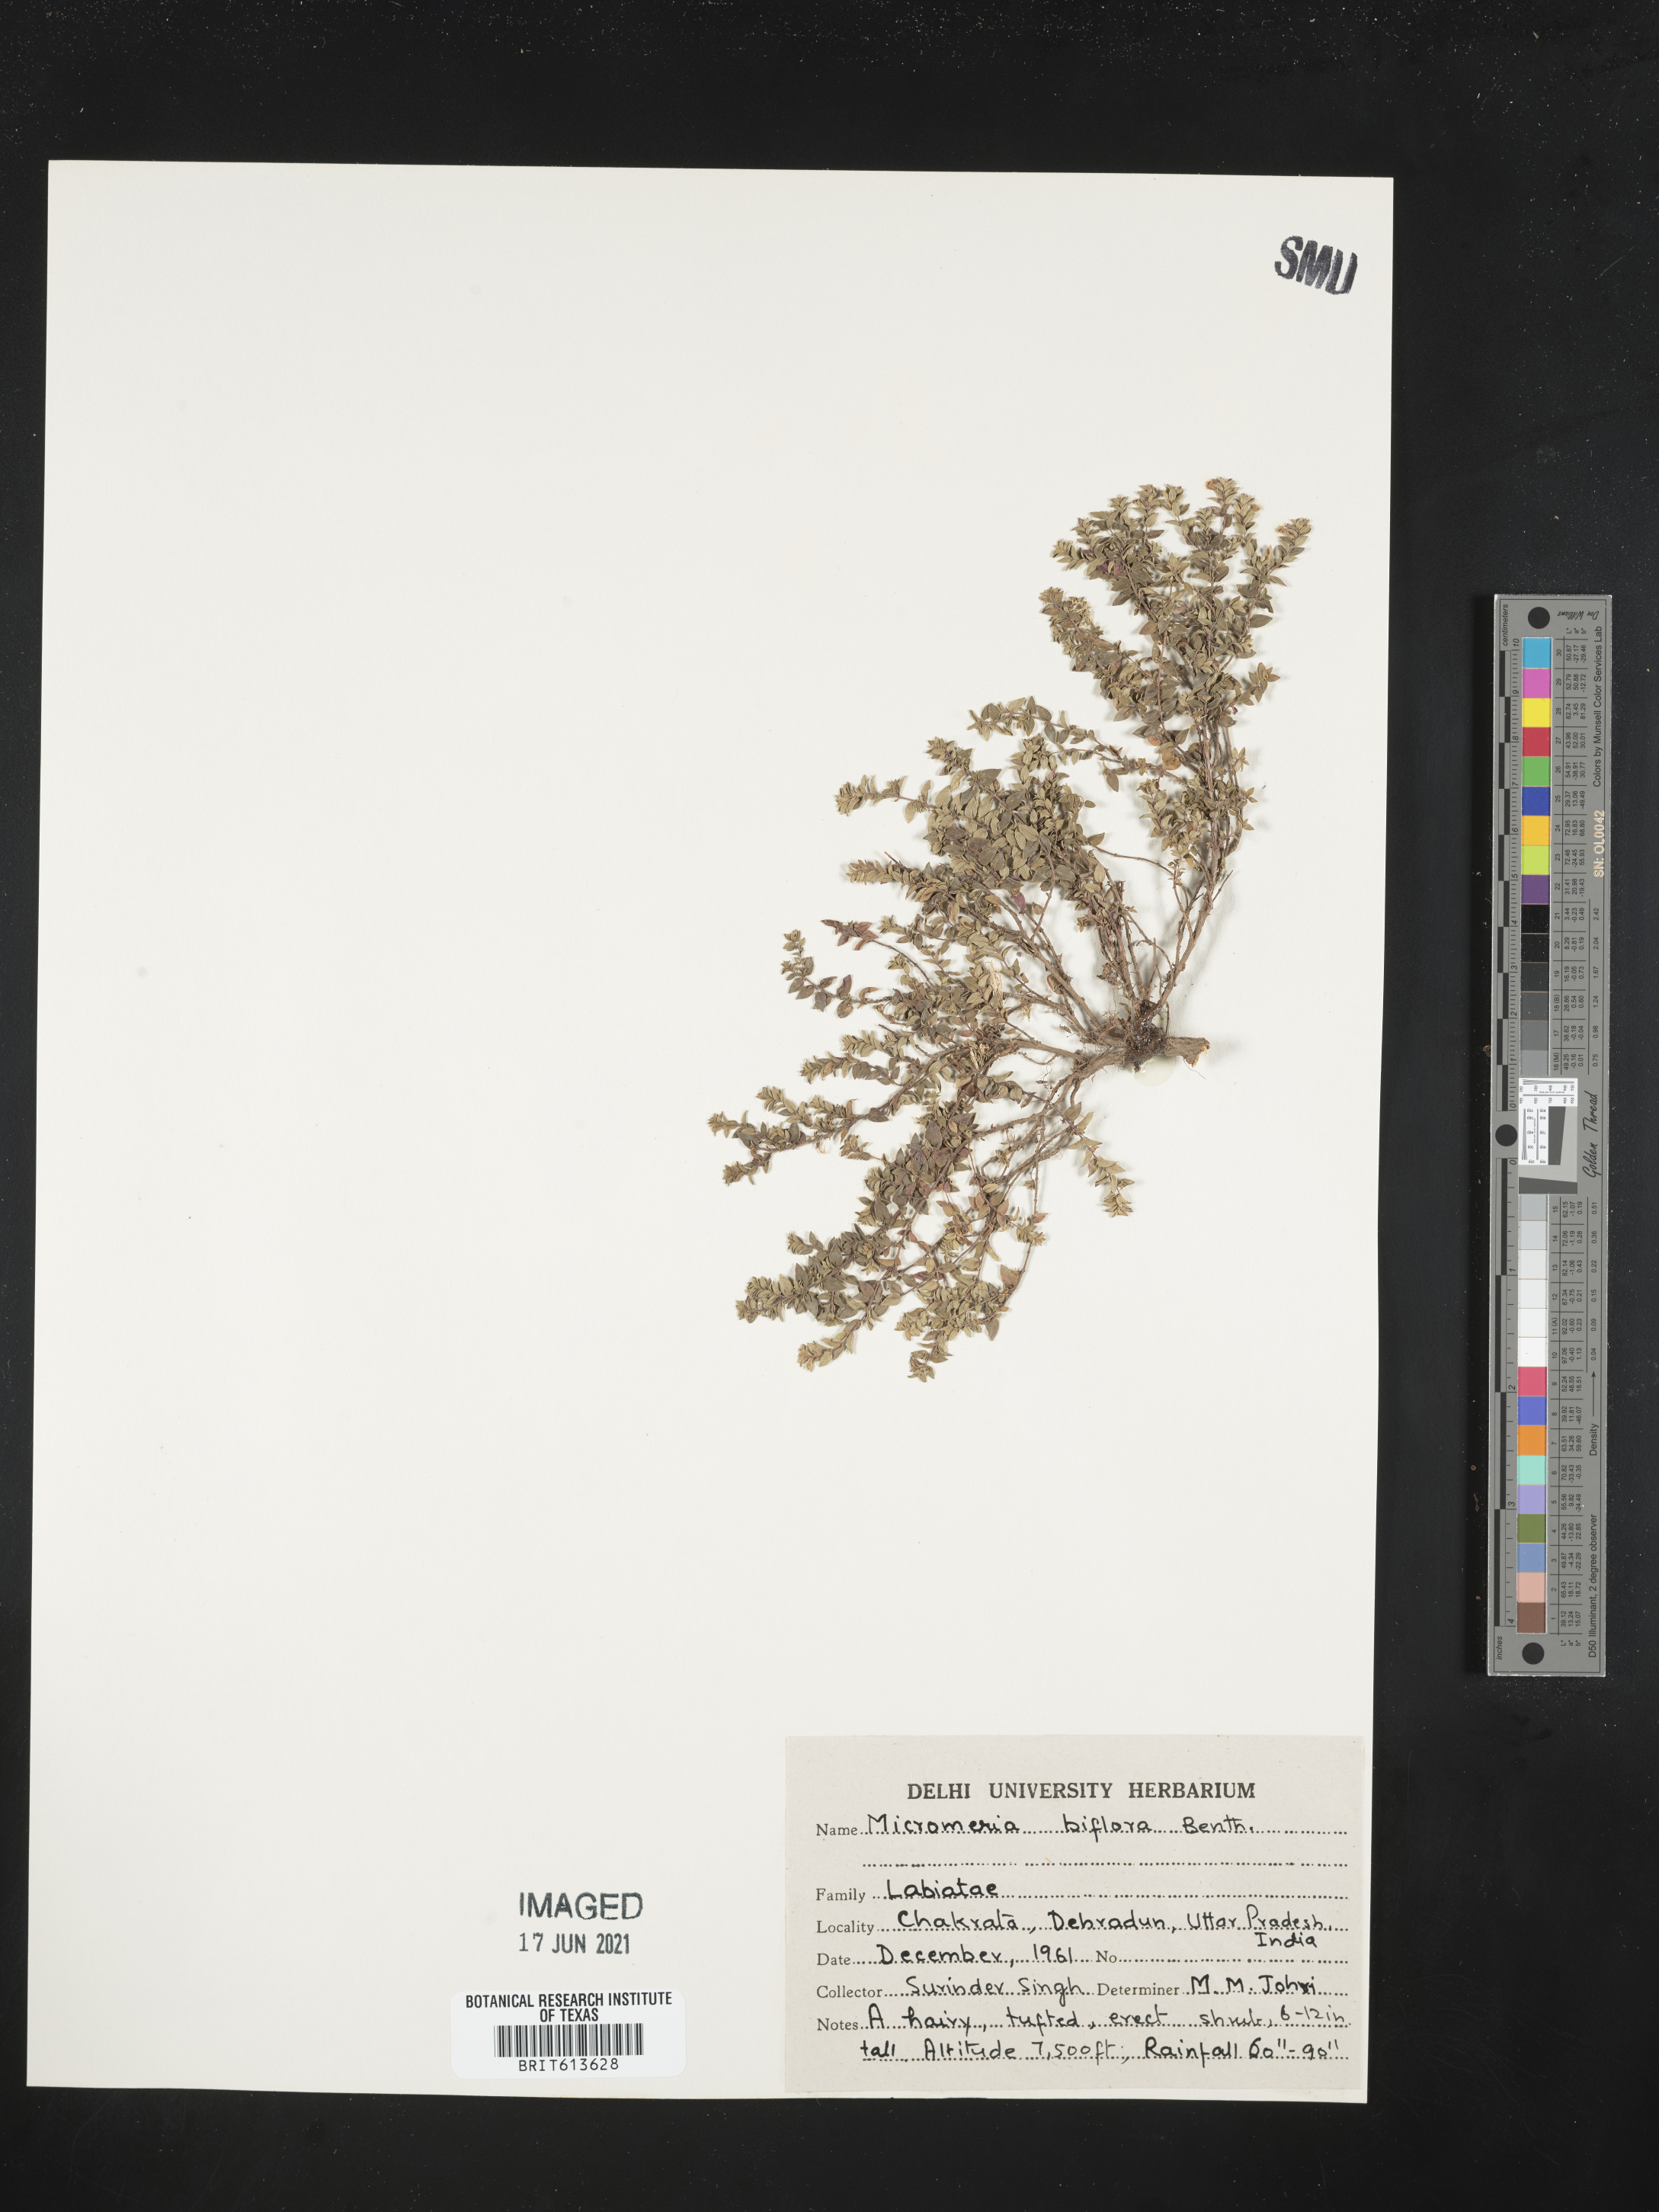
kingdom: Plantae
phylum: Tracheophyta
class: Magnoliopsida
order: Lamiales
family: Lamiaceae
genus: Micromeria
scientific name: Micromeria biflora
